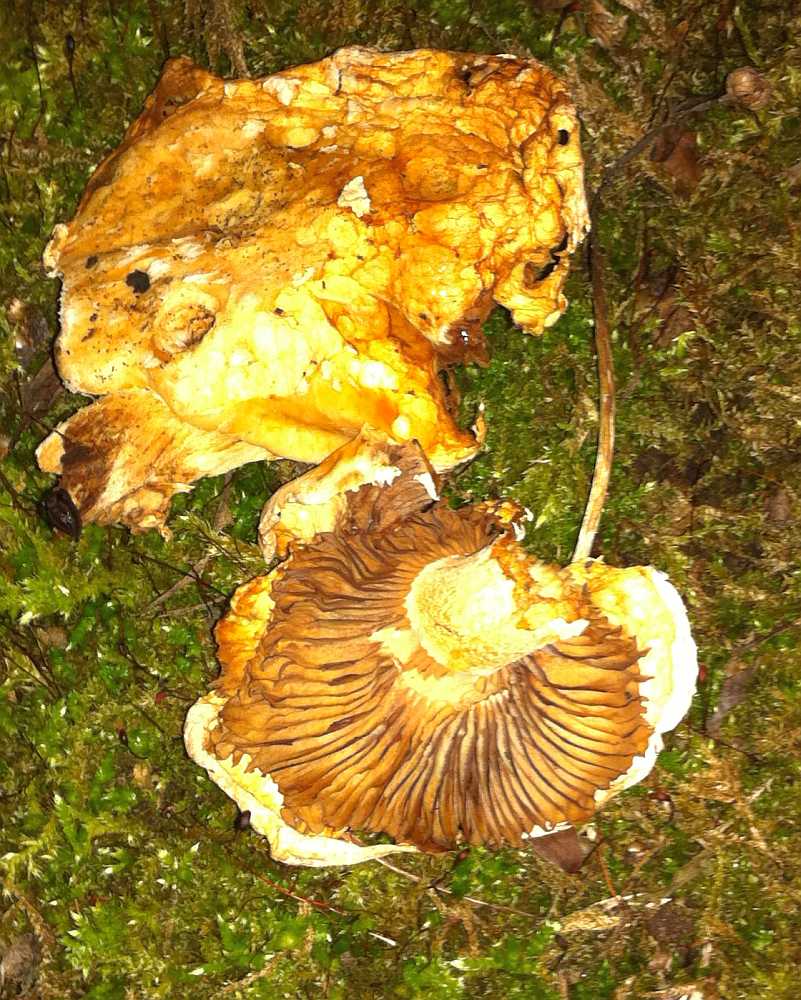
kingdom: Fungi
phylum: Basidiomycota
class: Agaricomycetes
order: Agaricales
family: Strophariaceae
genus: Pholiota
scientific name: Pholiota populnea
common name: poppel-kæmpeskælhat
